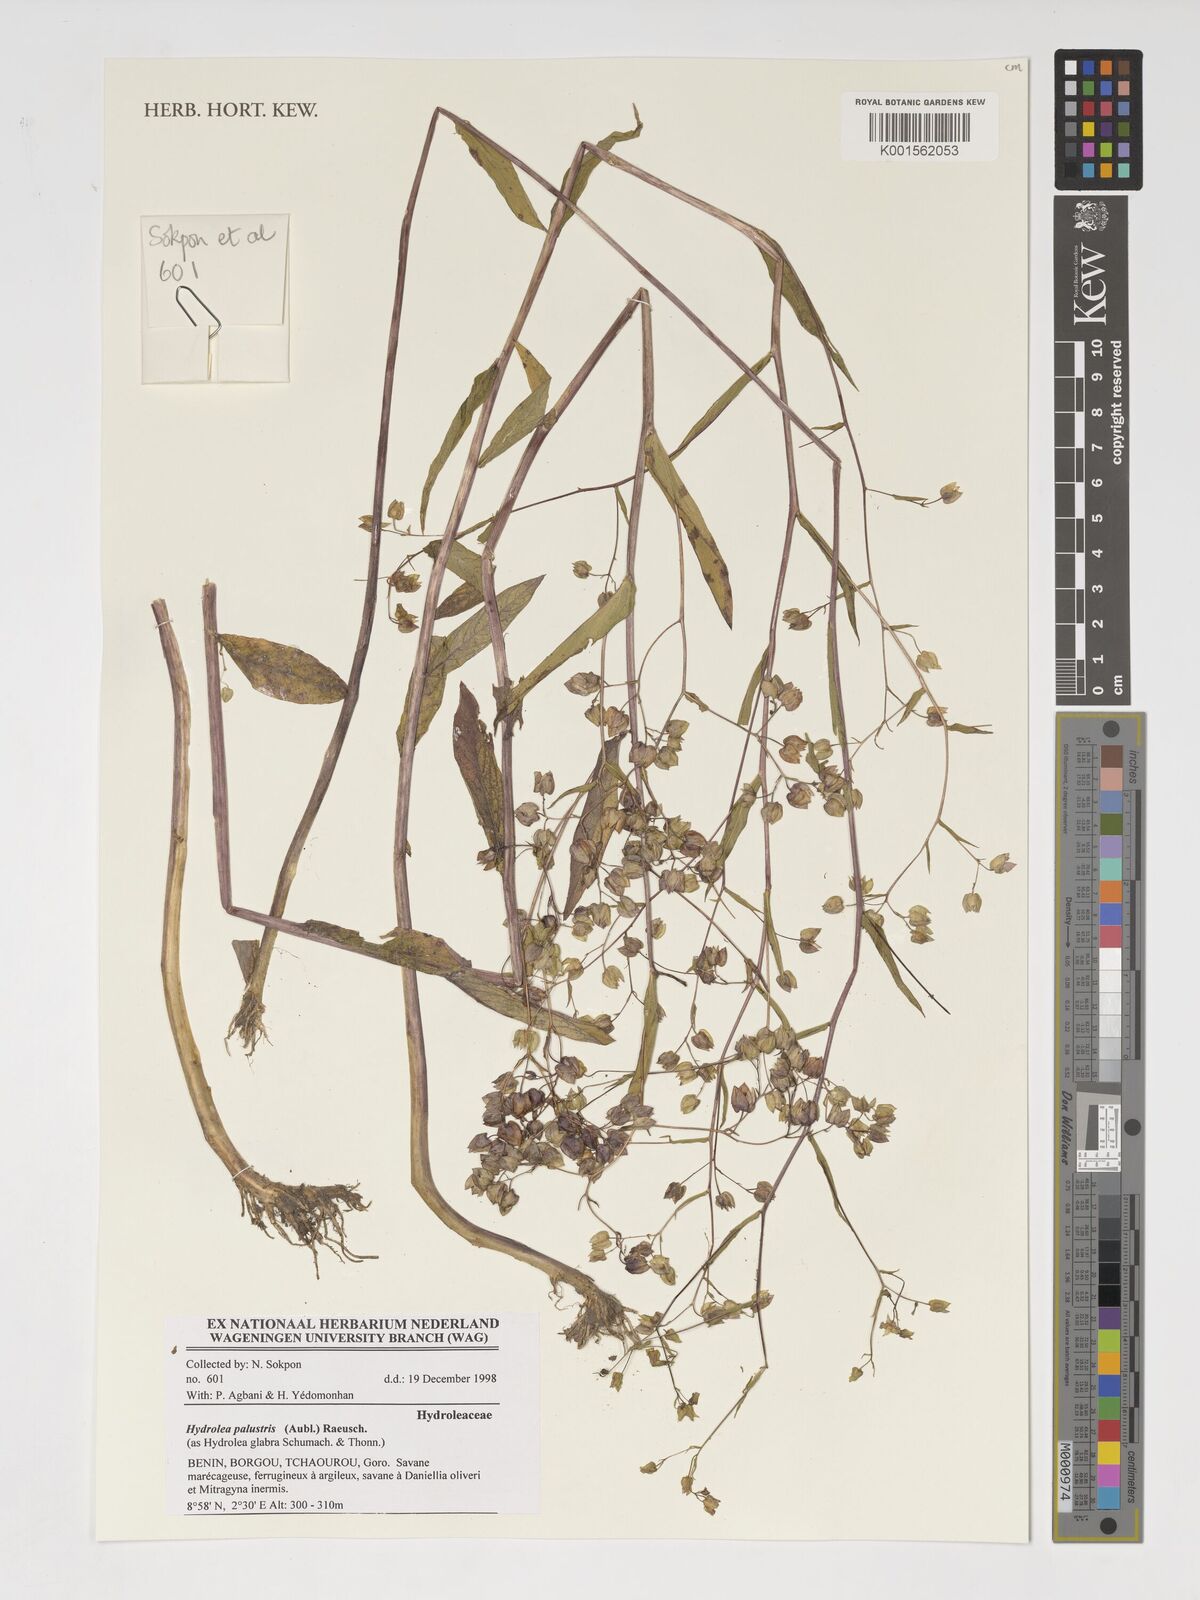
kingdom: Plantae
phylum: Tracheophyta
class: Magnoliopsida
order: Solanales
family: Hydroleaceae
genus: Hydrolea
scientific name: Hydrolea palustris
